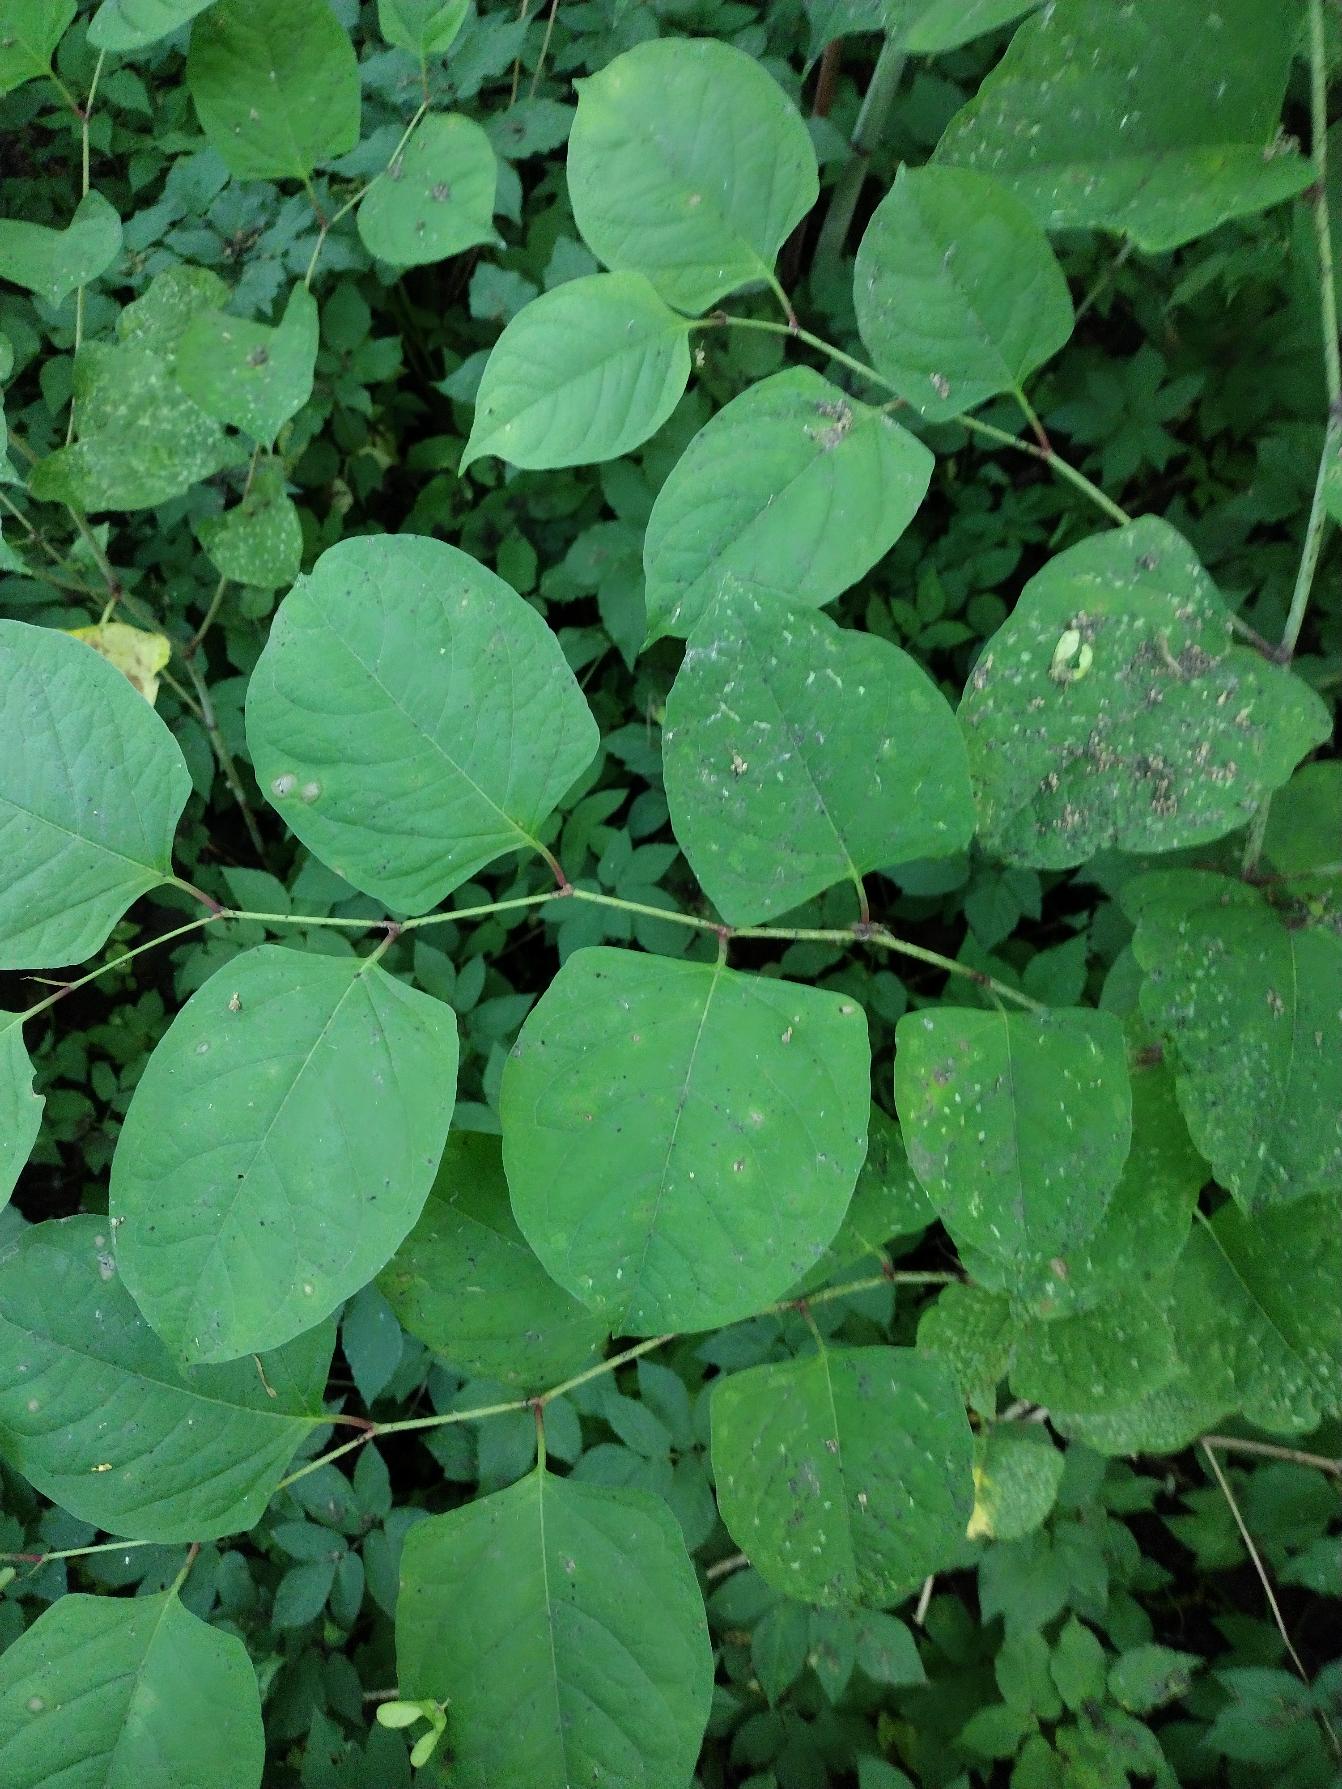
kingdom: Plantae
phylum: Tracheophyta
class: Magnoliopsida
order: Caryophyllales
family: Polygonaceae
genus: Reynoutria
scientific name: Reynoutria japonica
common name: Japan-pileurt
